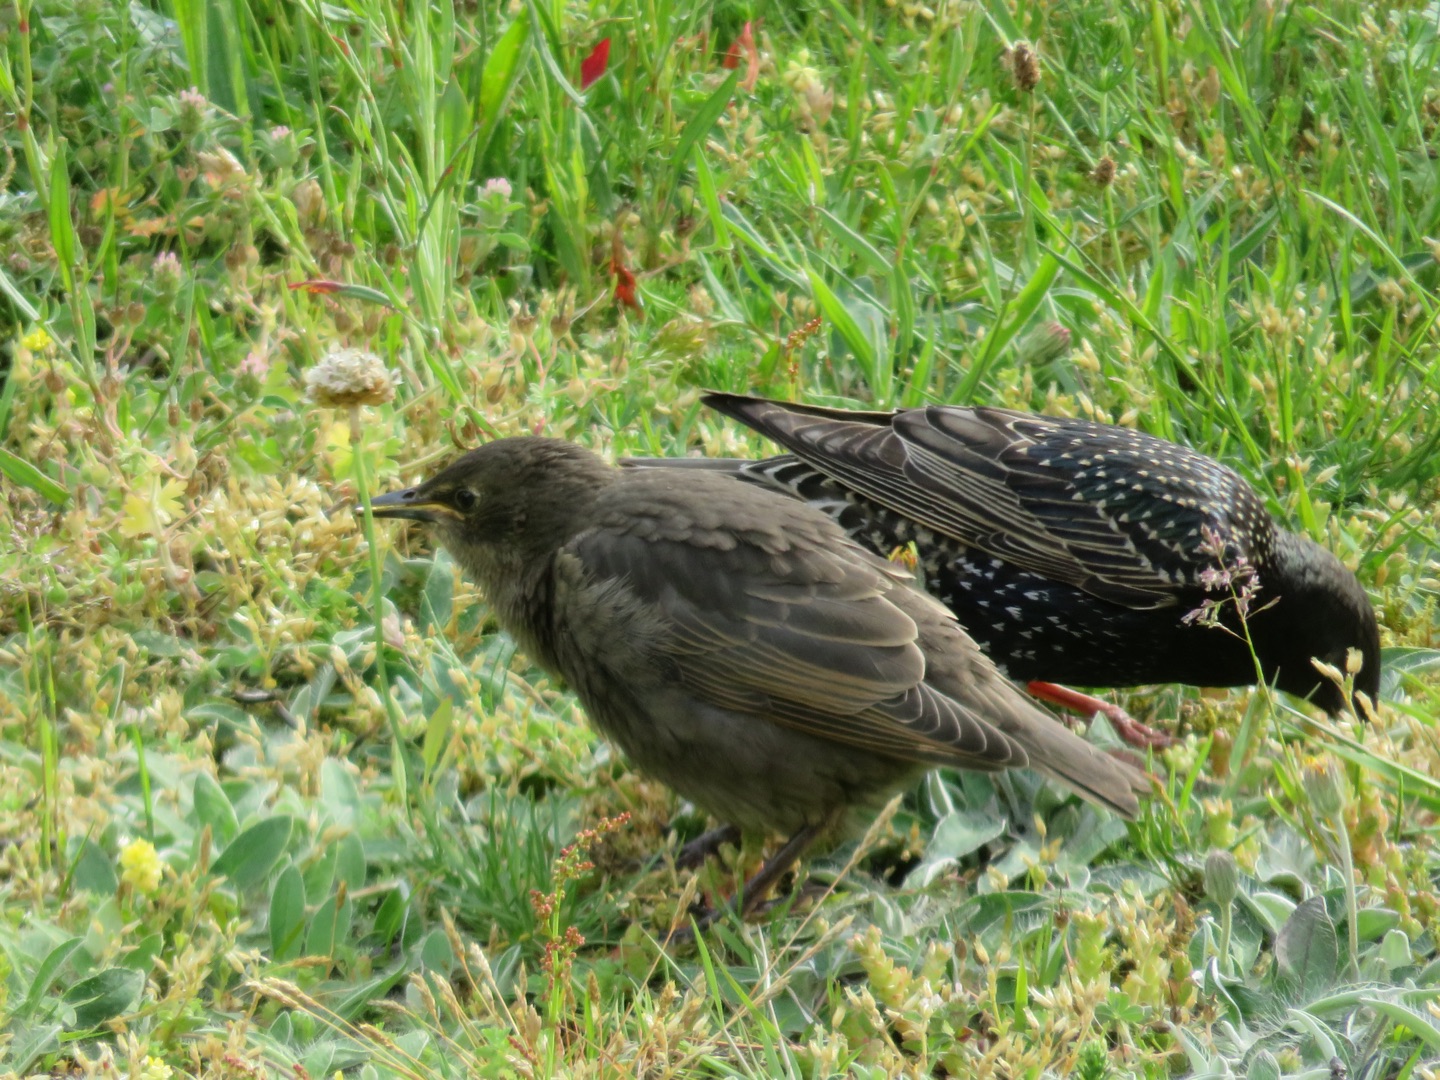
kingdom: Animalia
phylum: Chordata
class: Aves
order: Passeriformes
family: Sturnidae
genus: Sturnus
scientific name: Sturnus vulgaris
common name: Stær
